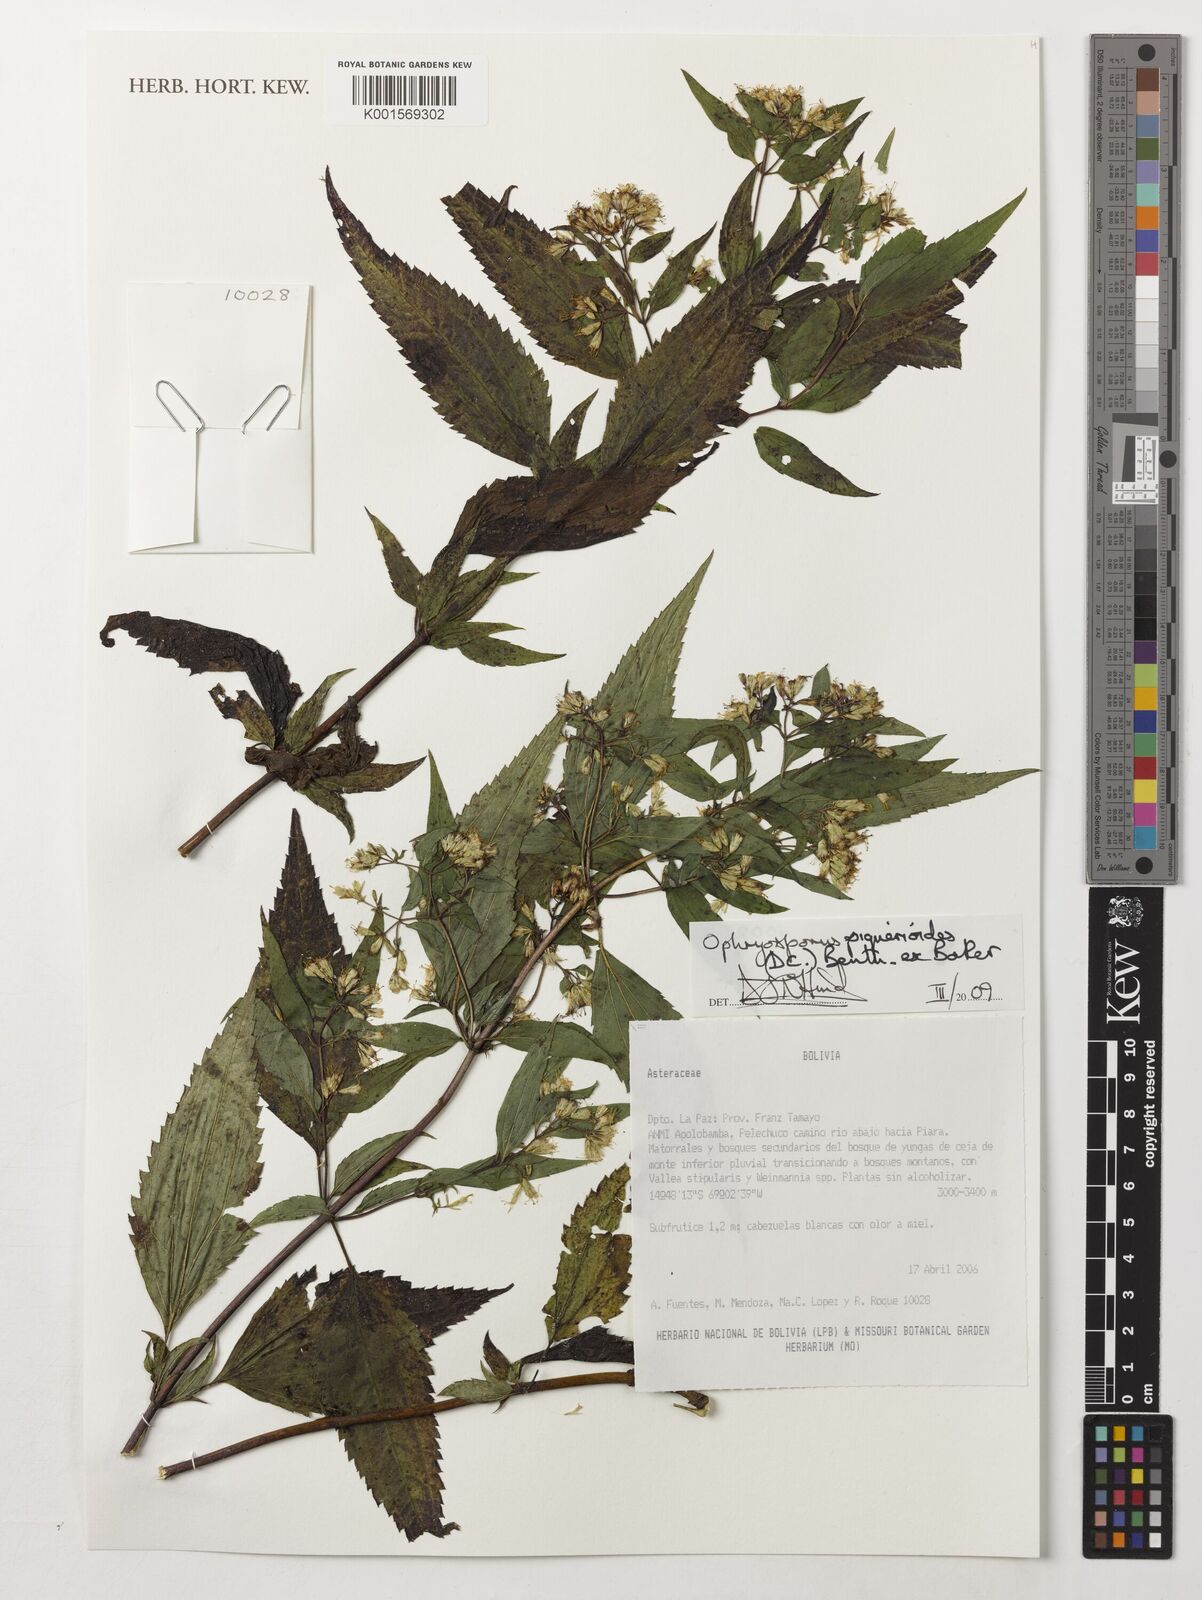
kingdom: Plantae
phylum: Tracheophyta
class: Magnoliopsida
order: Asterales
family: Asteraceae
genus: Ophryosporus
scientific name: Ophryosporus piquerioides
